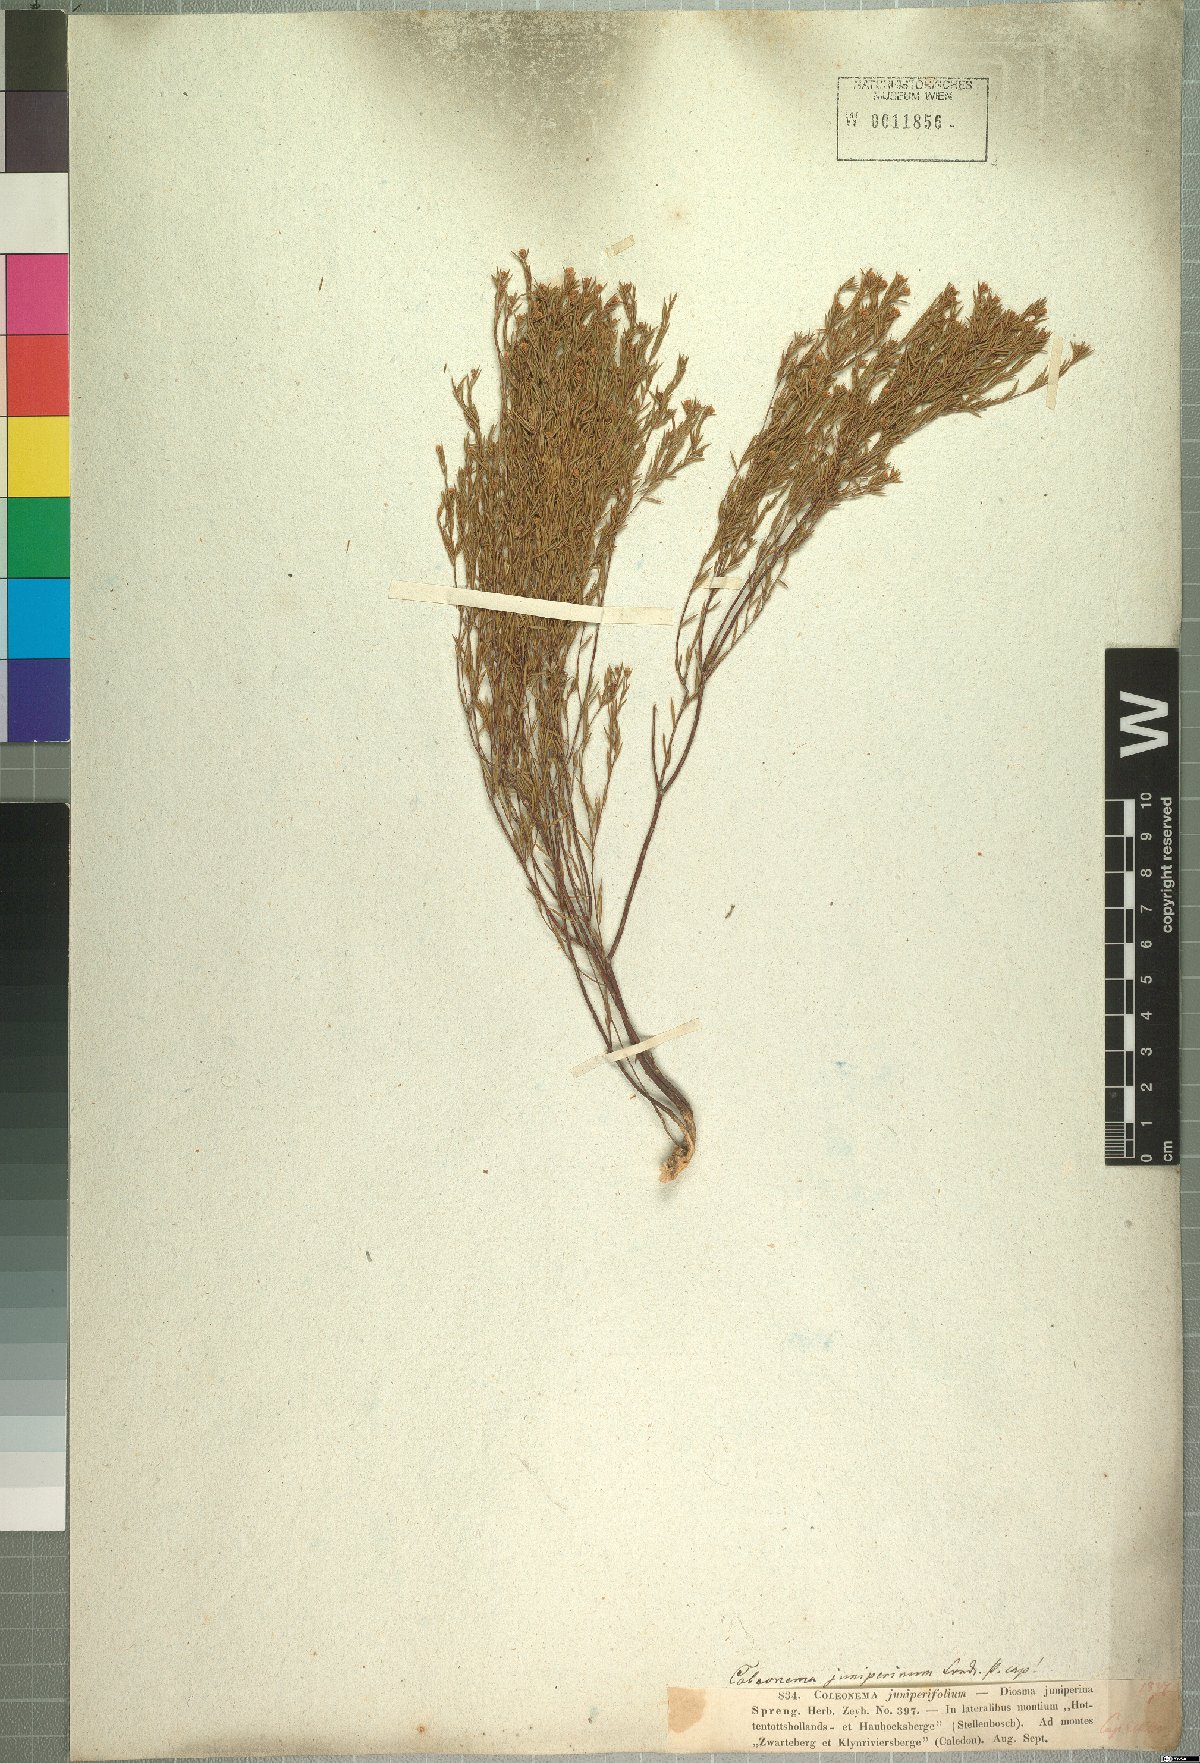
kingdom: Plantae
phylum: Tracheophyta
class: Magnoliopsida
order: Sapindales
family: Rutaceae
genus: Coleonema
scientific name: Coleonema juniperinum
